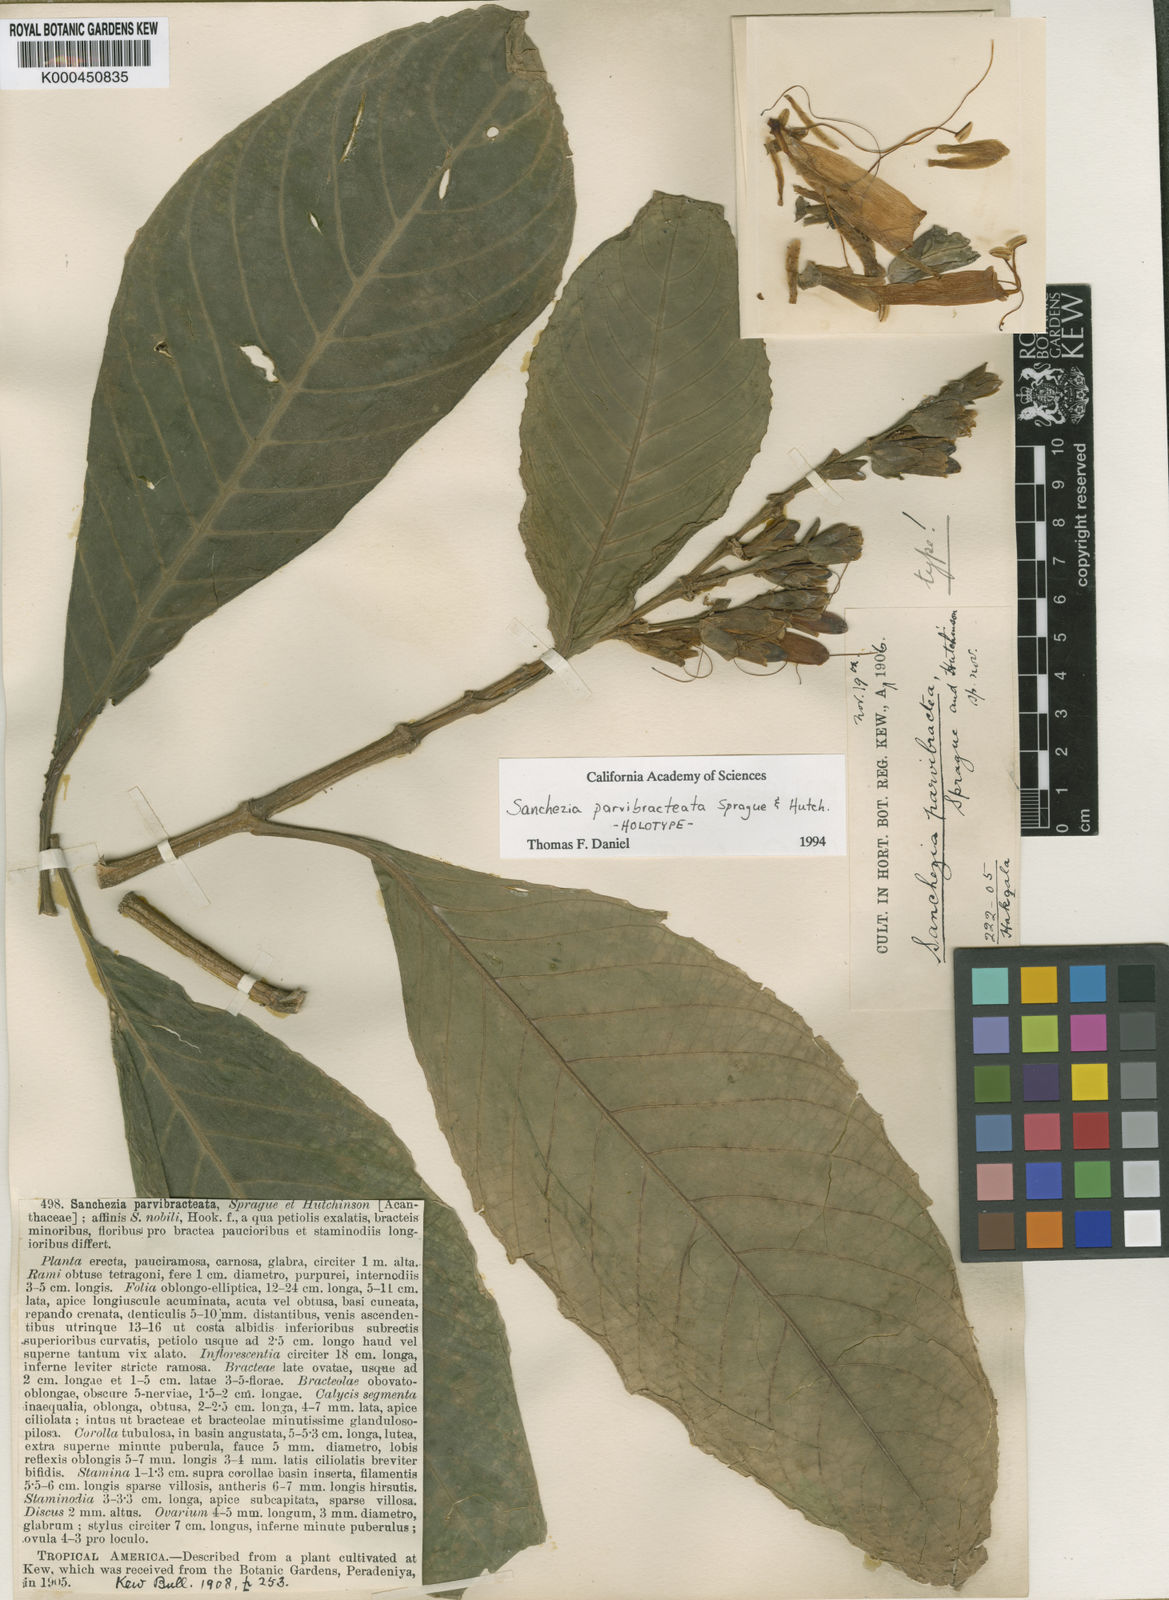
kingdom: Plantae
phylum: Tracheophyta
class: Magnoliopsida
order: Lamiales
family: Acanthaceae
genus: Sanchezia
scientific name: Sanchezia parvibracteata
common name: Sanchezia
